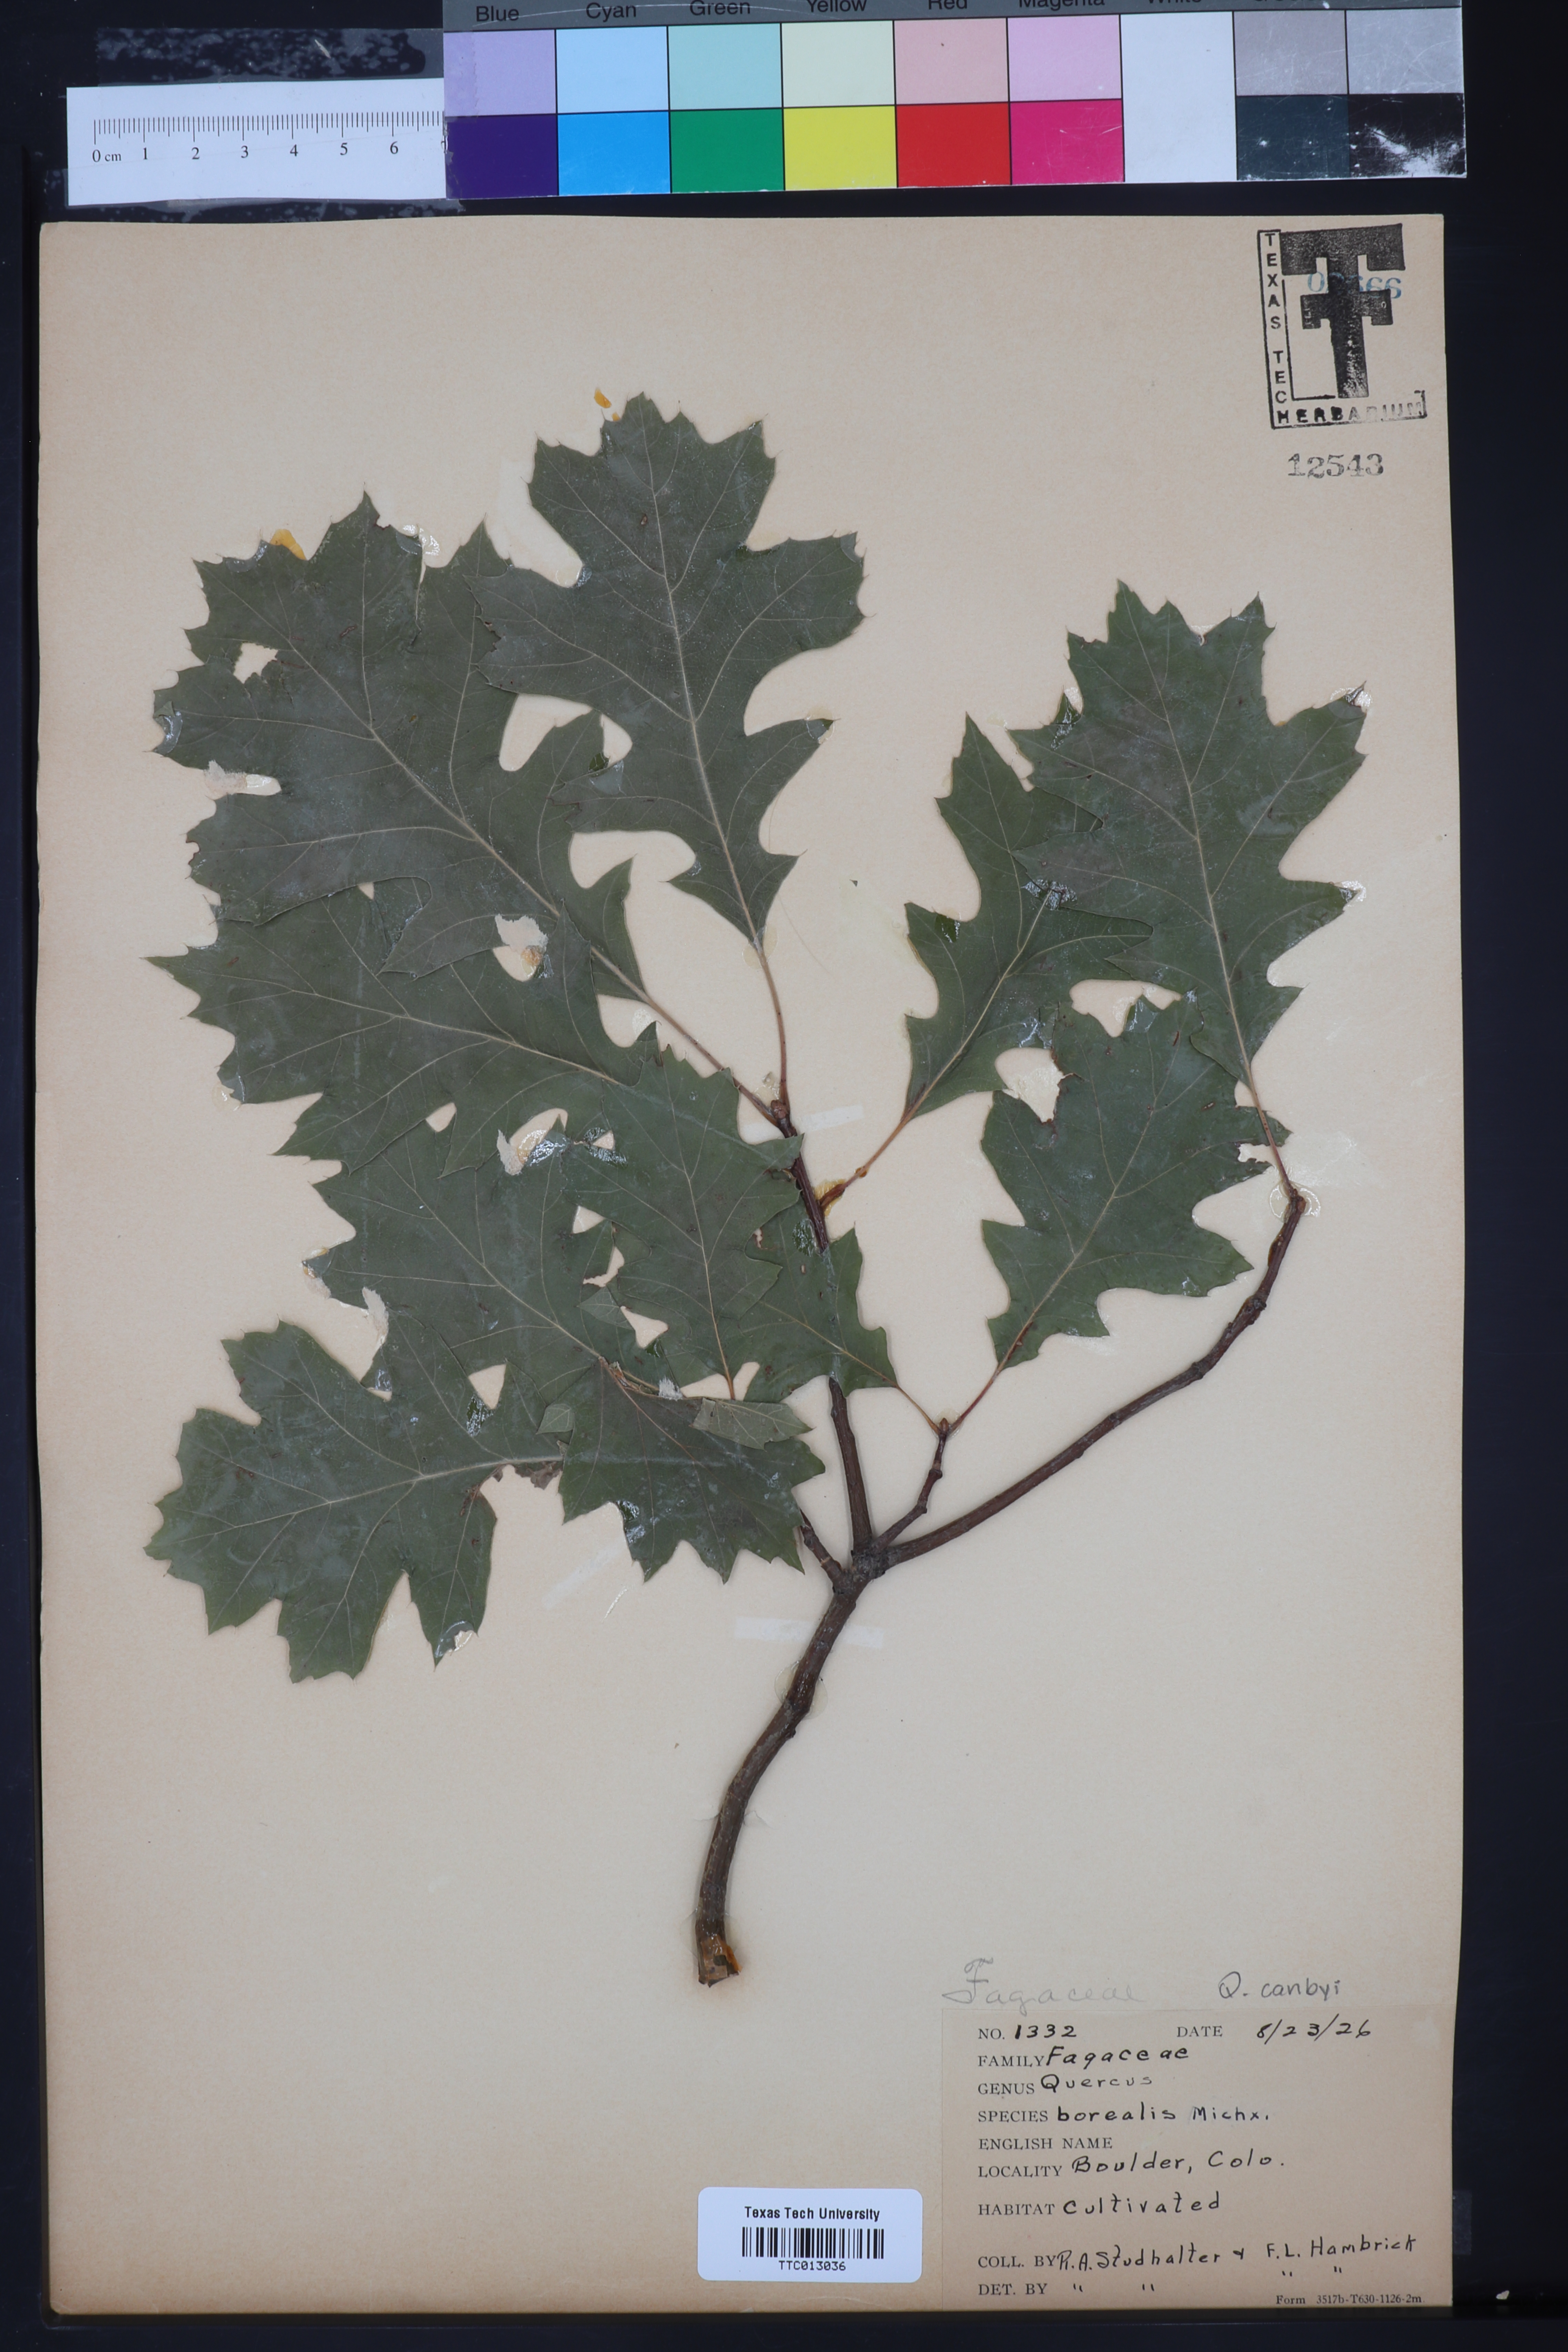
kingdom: Plantae
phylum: Tracheophyta
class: Magnoliopsida
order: Fagales
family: Fagaceae
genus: Quercus
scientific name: Quercus rubra
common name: Red oak
